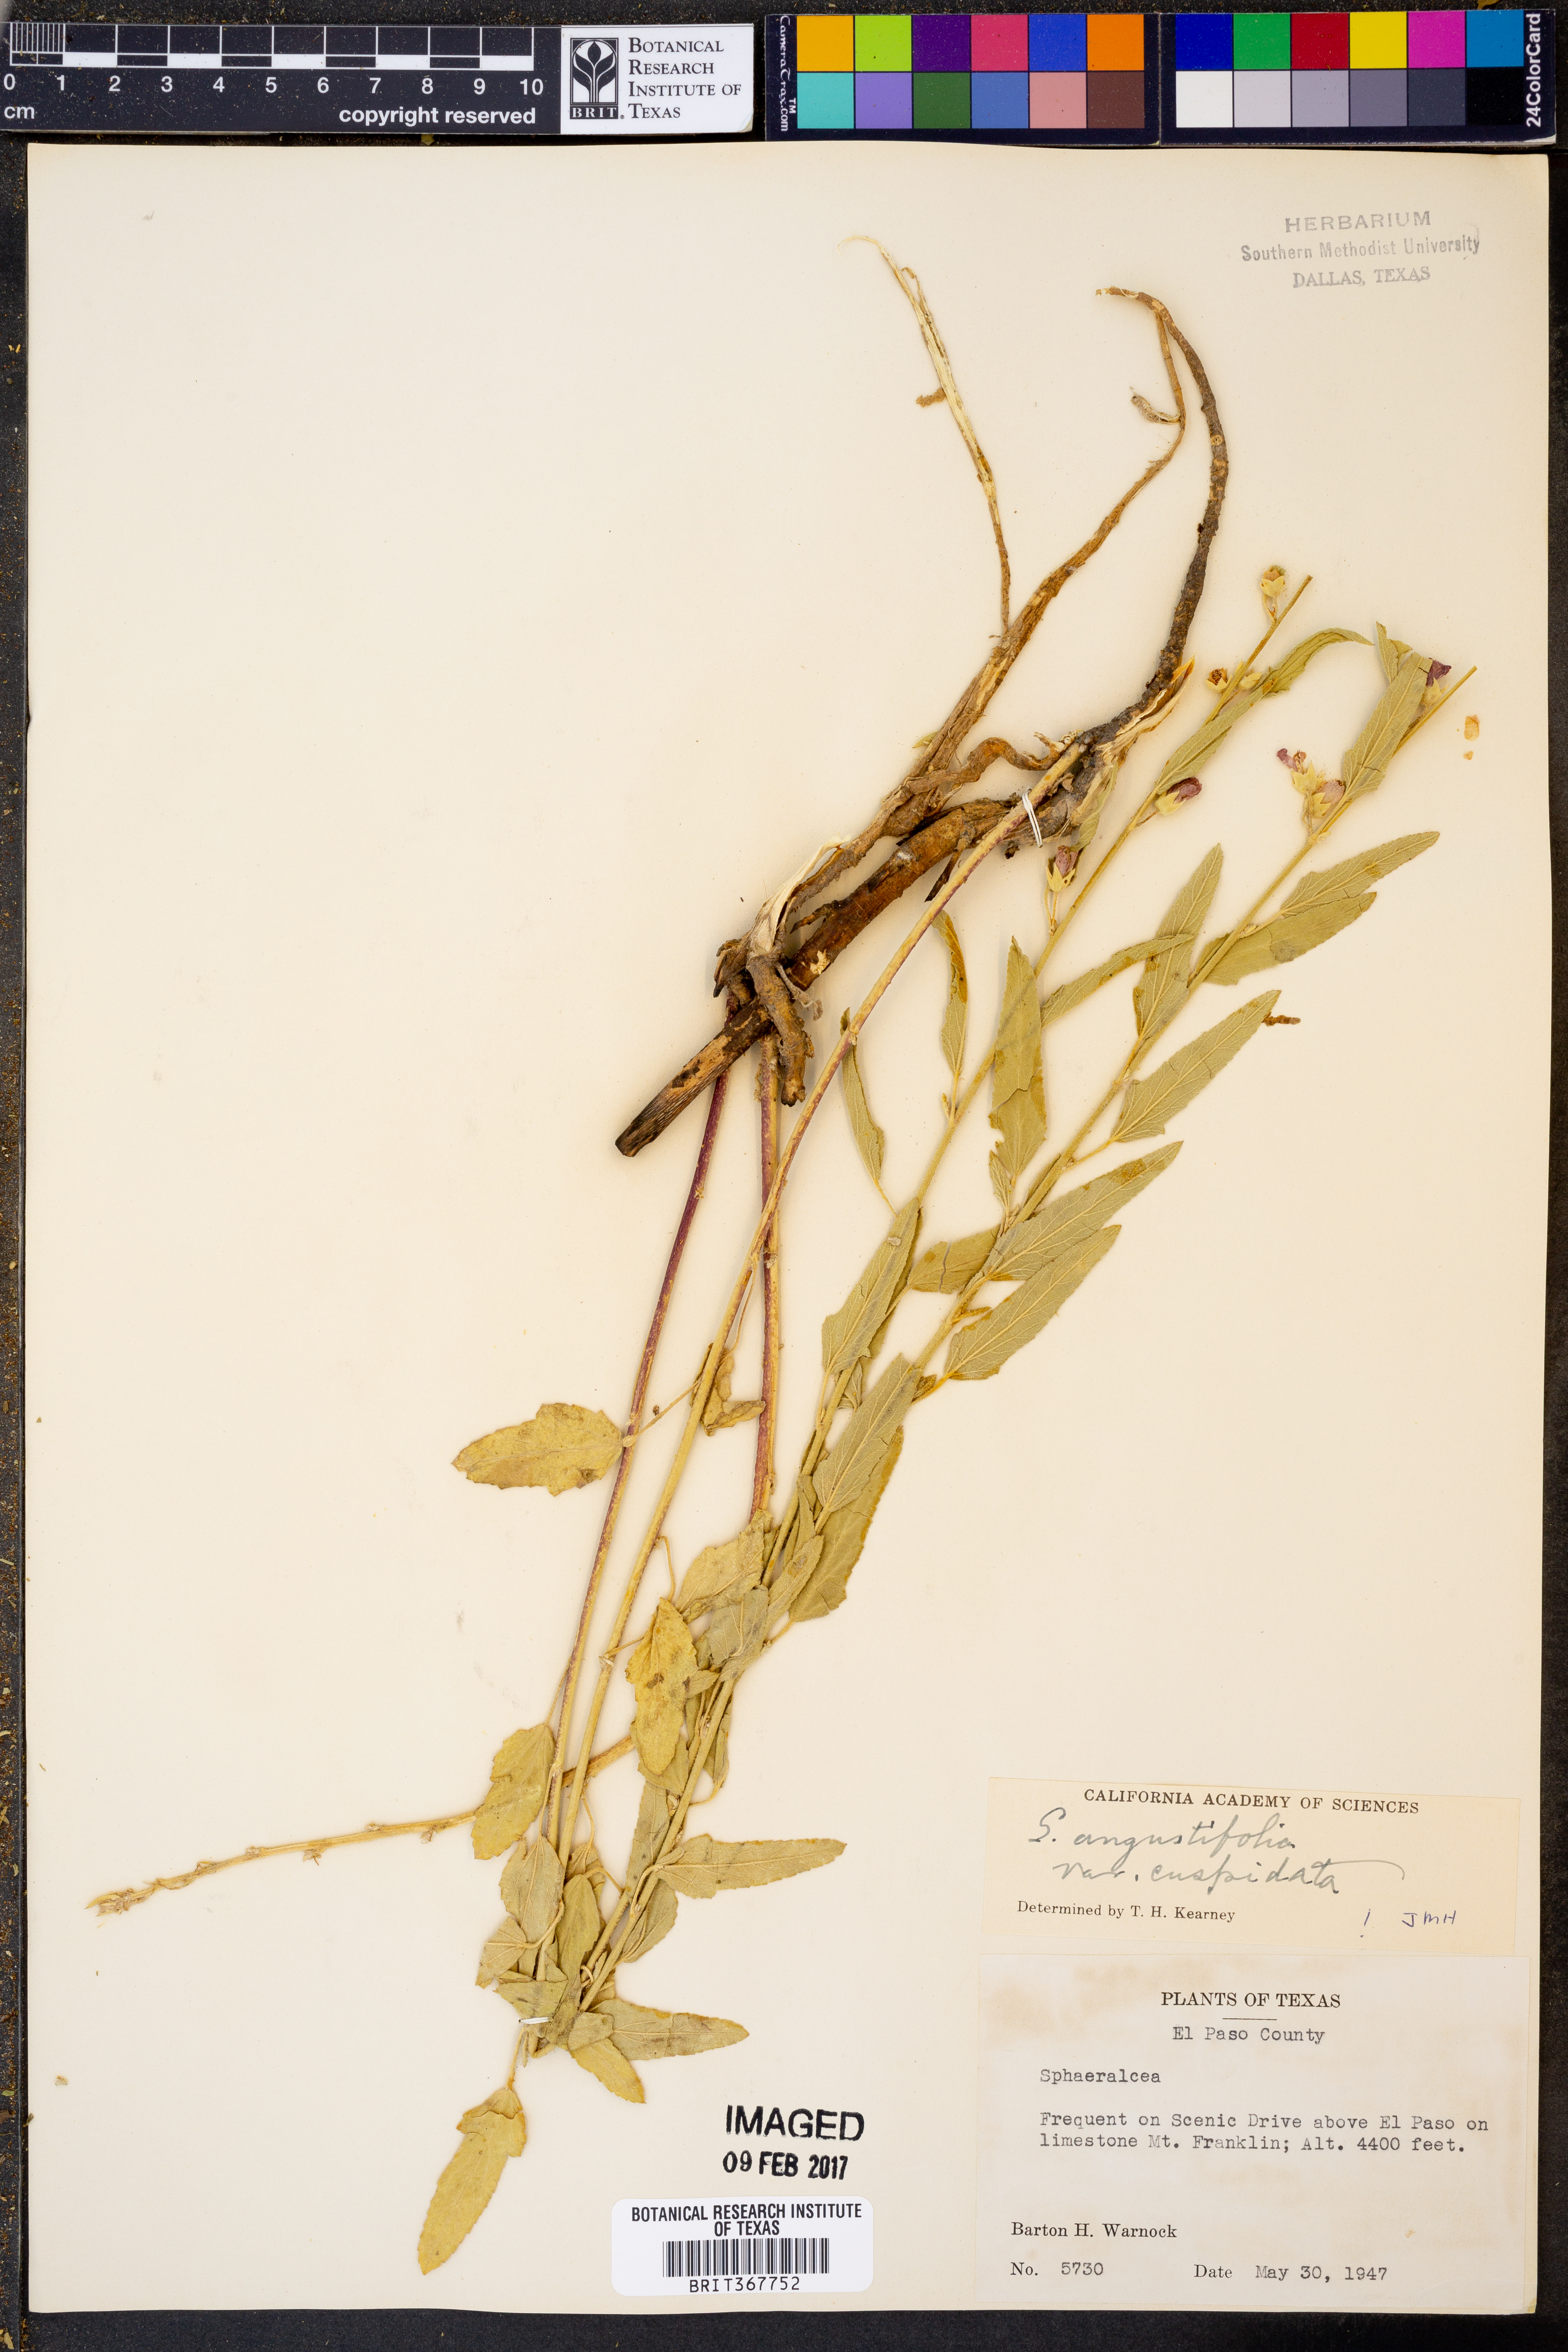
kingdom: Plantae
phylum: Tracheophyta
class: Magnoliopsida
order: Malvales
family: Malvaceae
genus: Sphaeralcea
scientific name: Sphaeralcea angustifolia
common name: Copper globe-mallow
